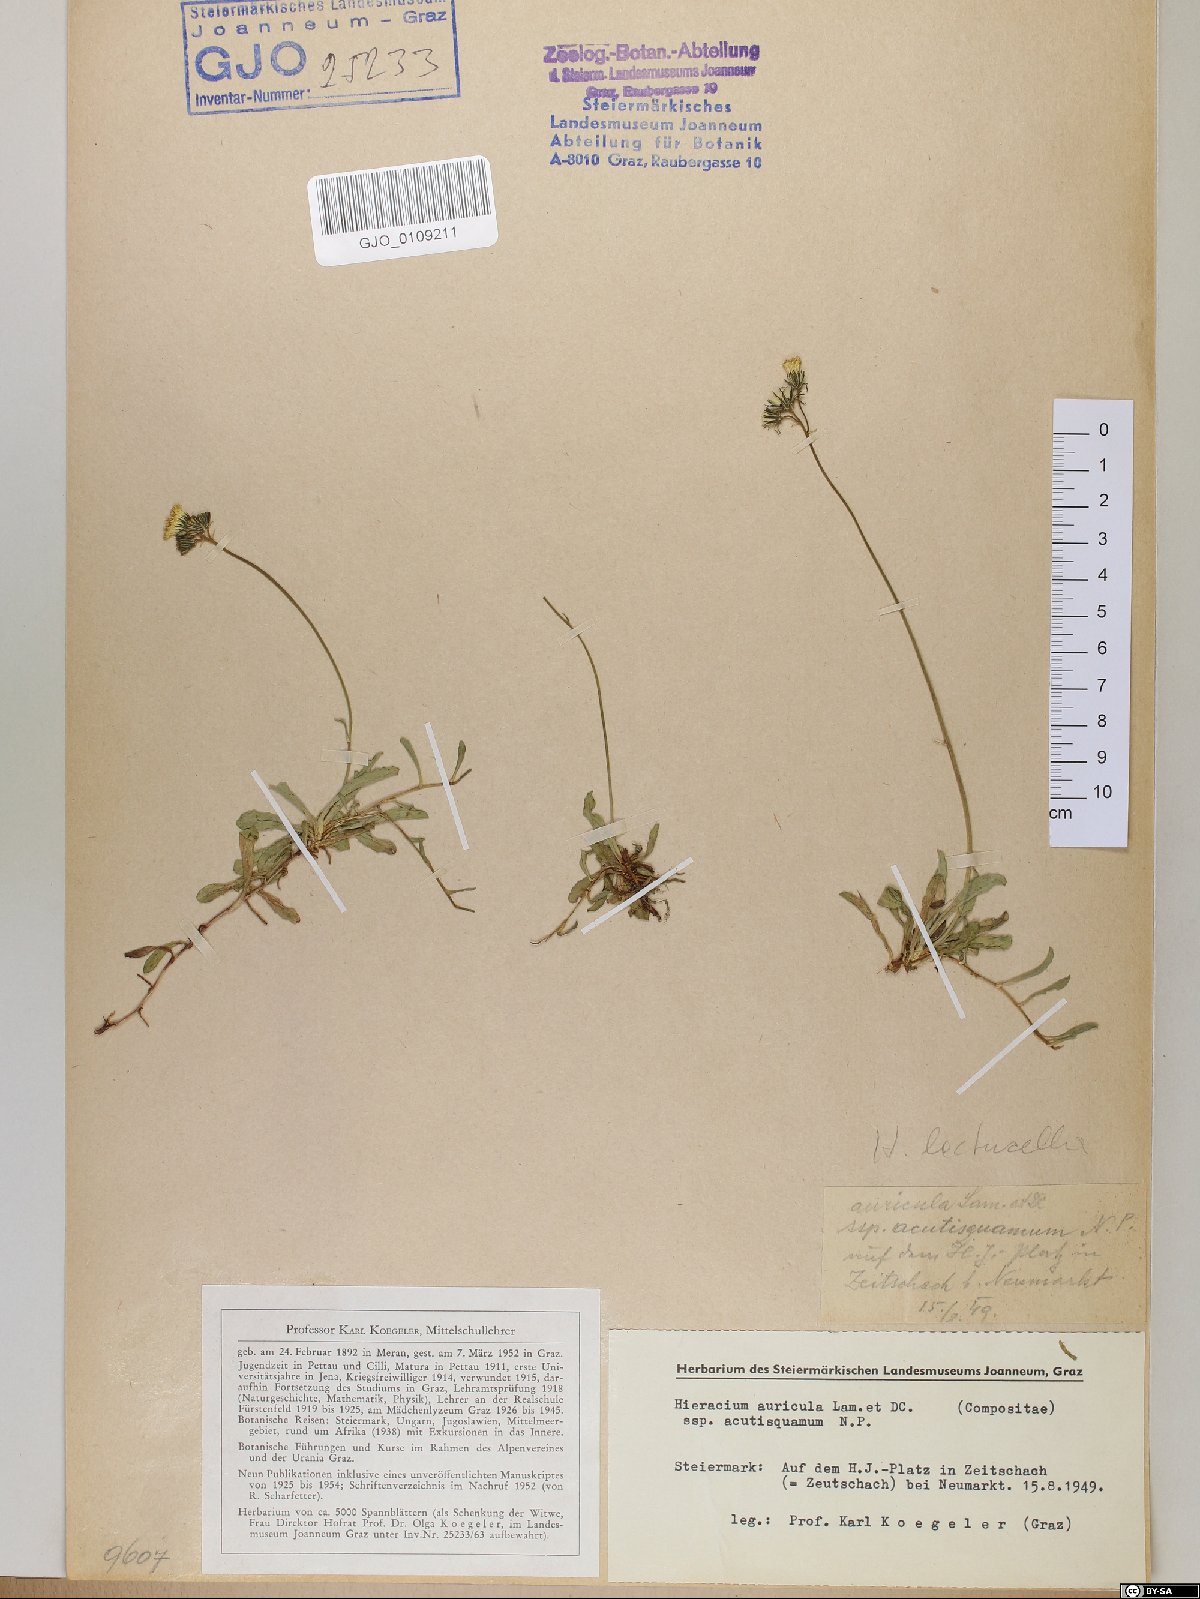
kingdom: Plantae
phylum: Tracheophyta
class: Magnoliopsida
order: Asterales
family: Asteraceae
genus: Hieracium
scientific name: Hieracium auricula
